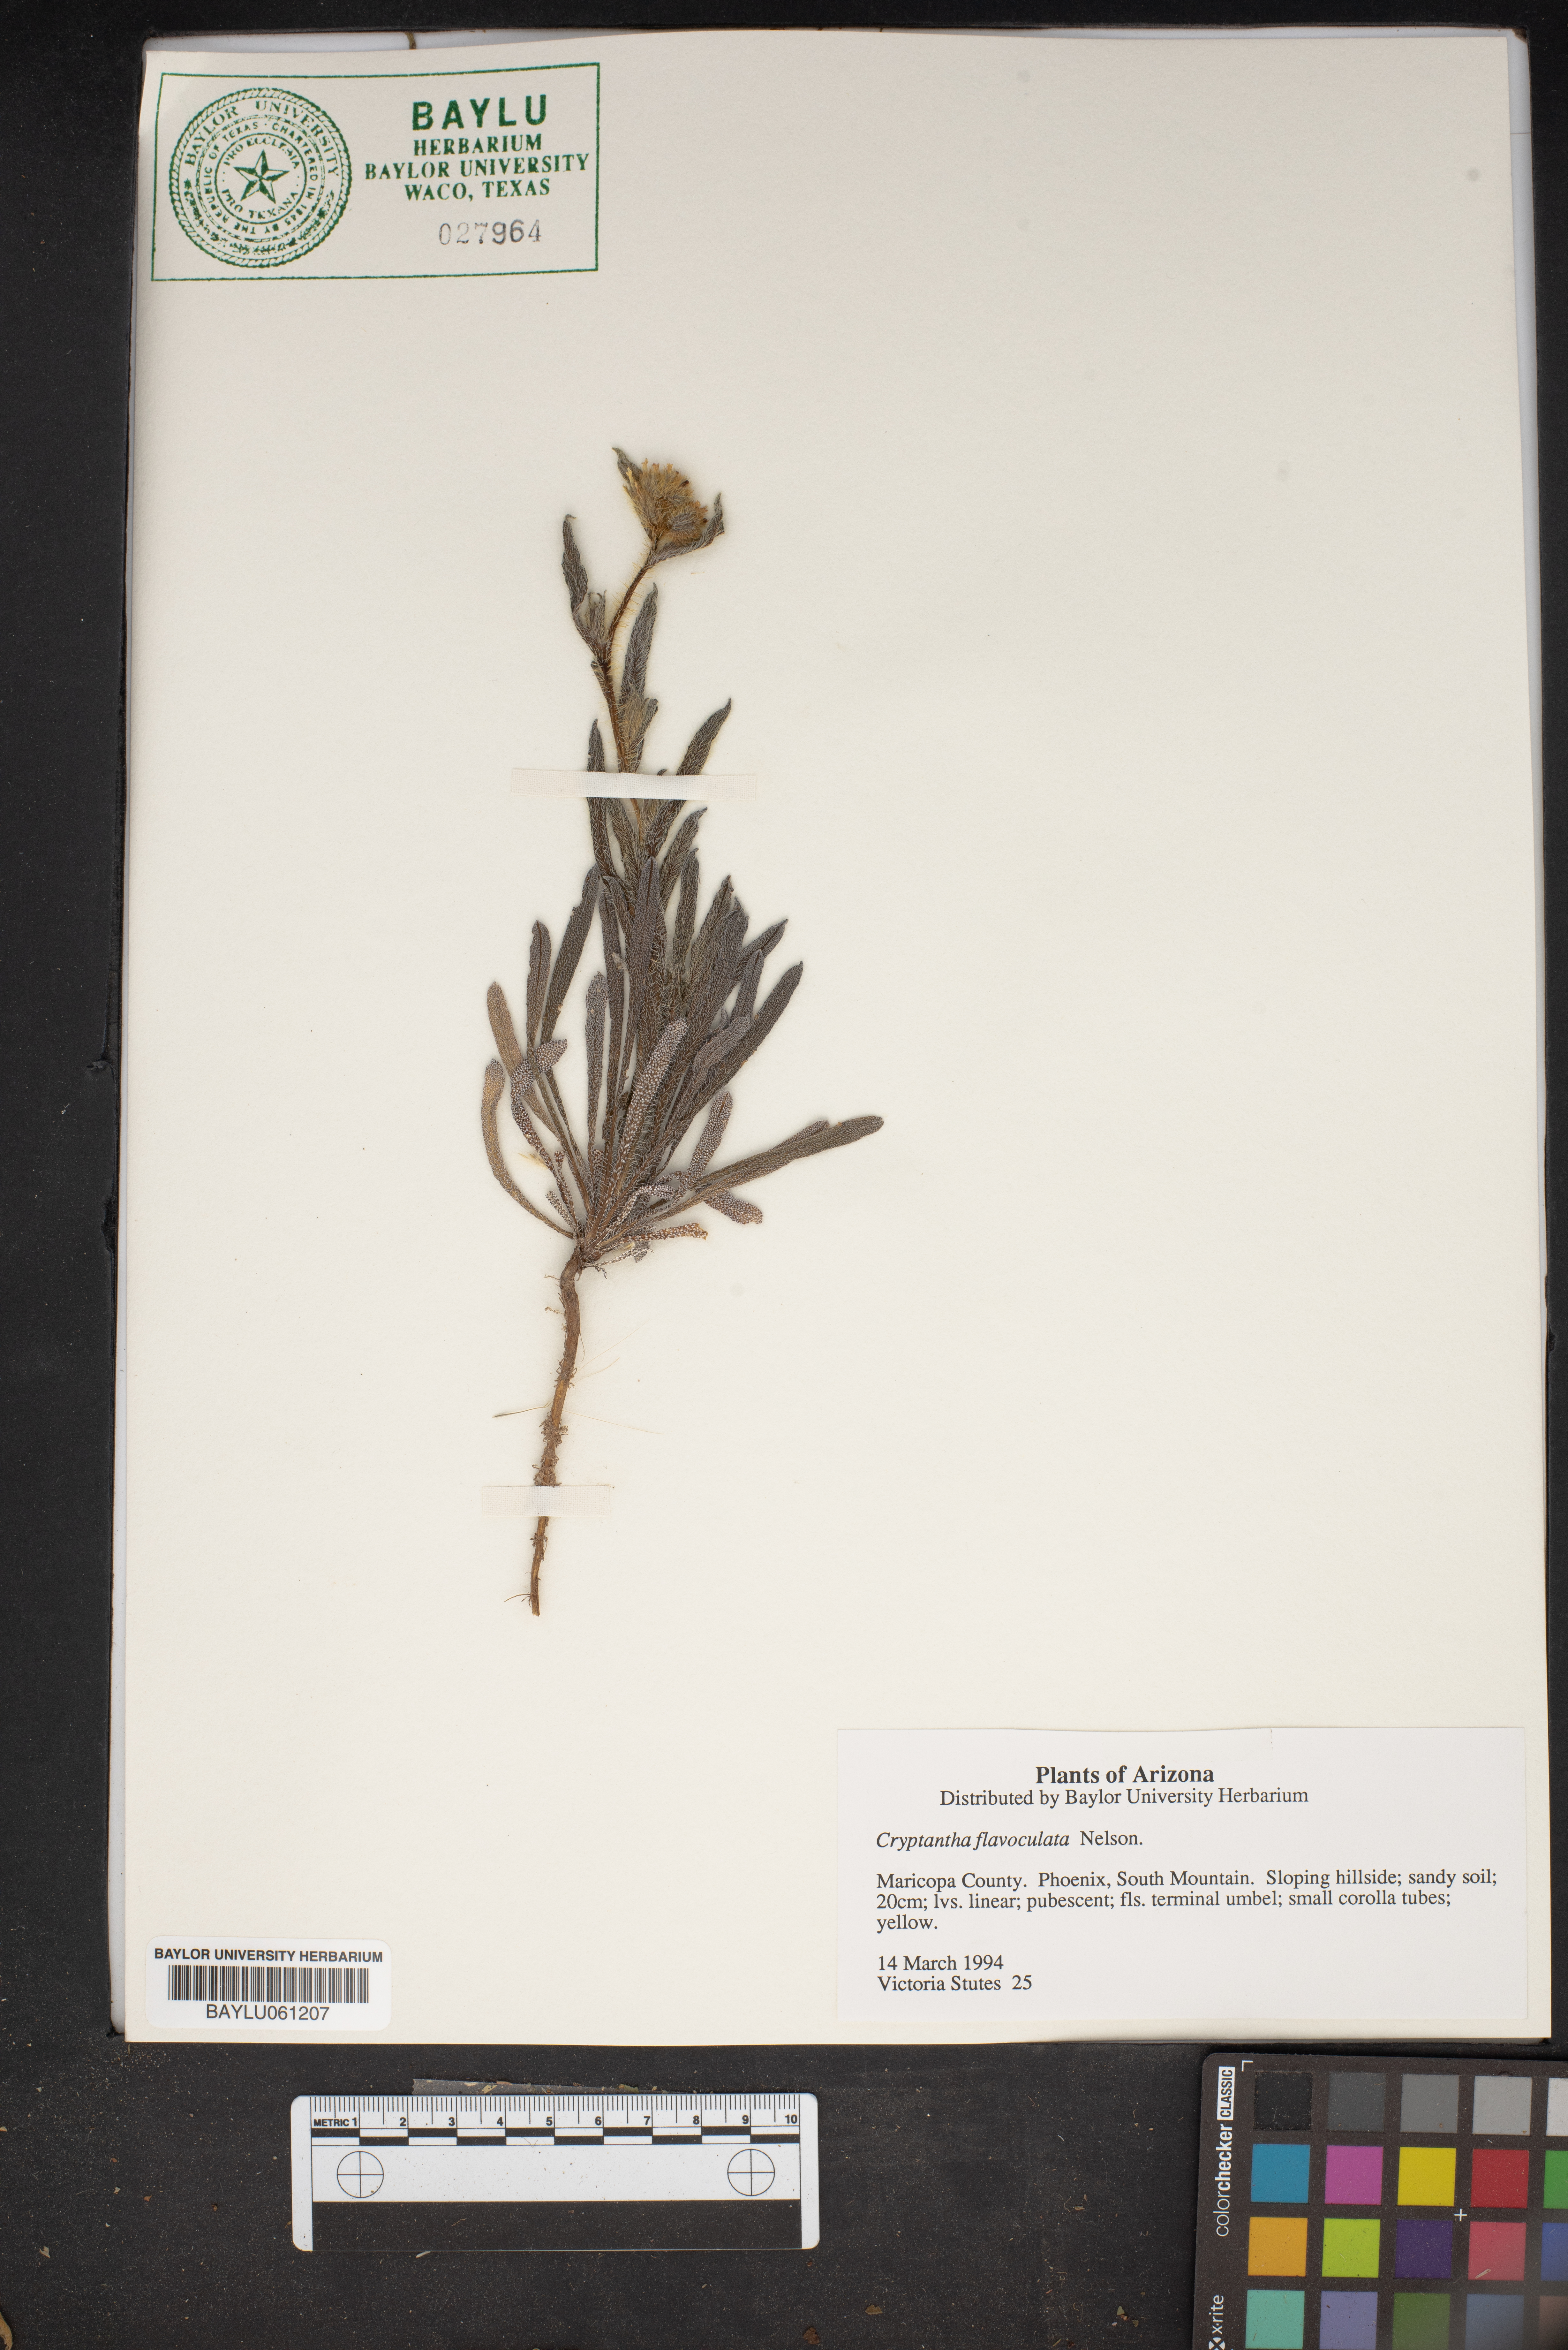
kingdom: Plantae
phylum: Tracheophyta
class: Magnoliopsida
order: Boraginales
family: Boraginaceae
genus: Oreocarya
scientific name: Oreocarya flavoculata
